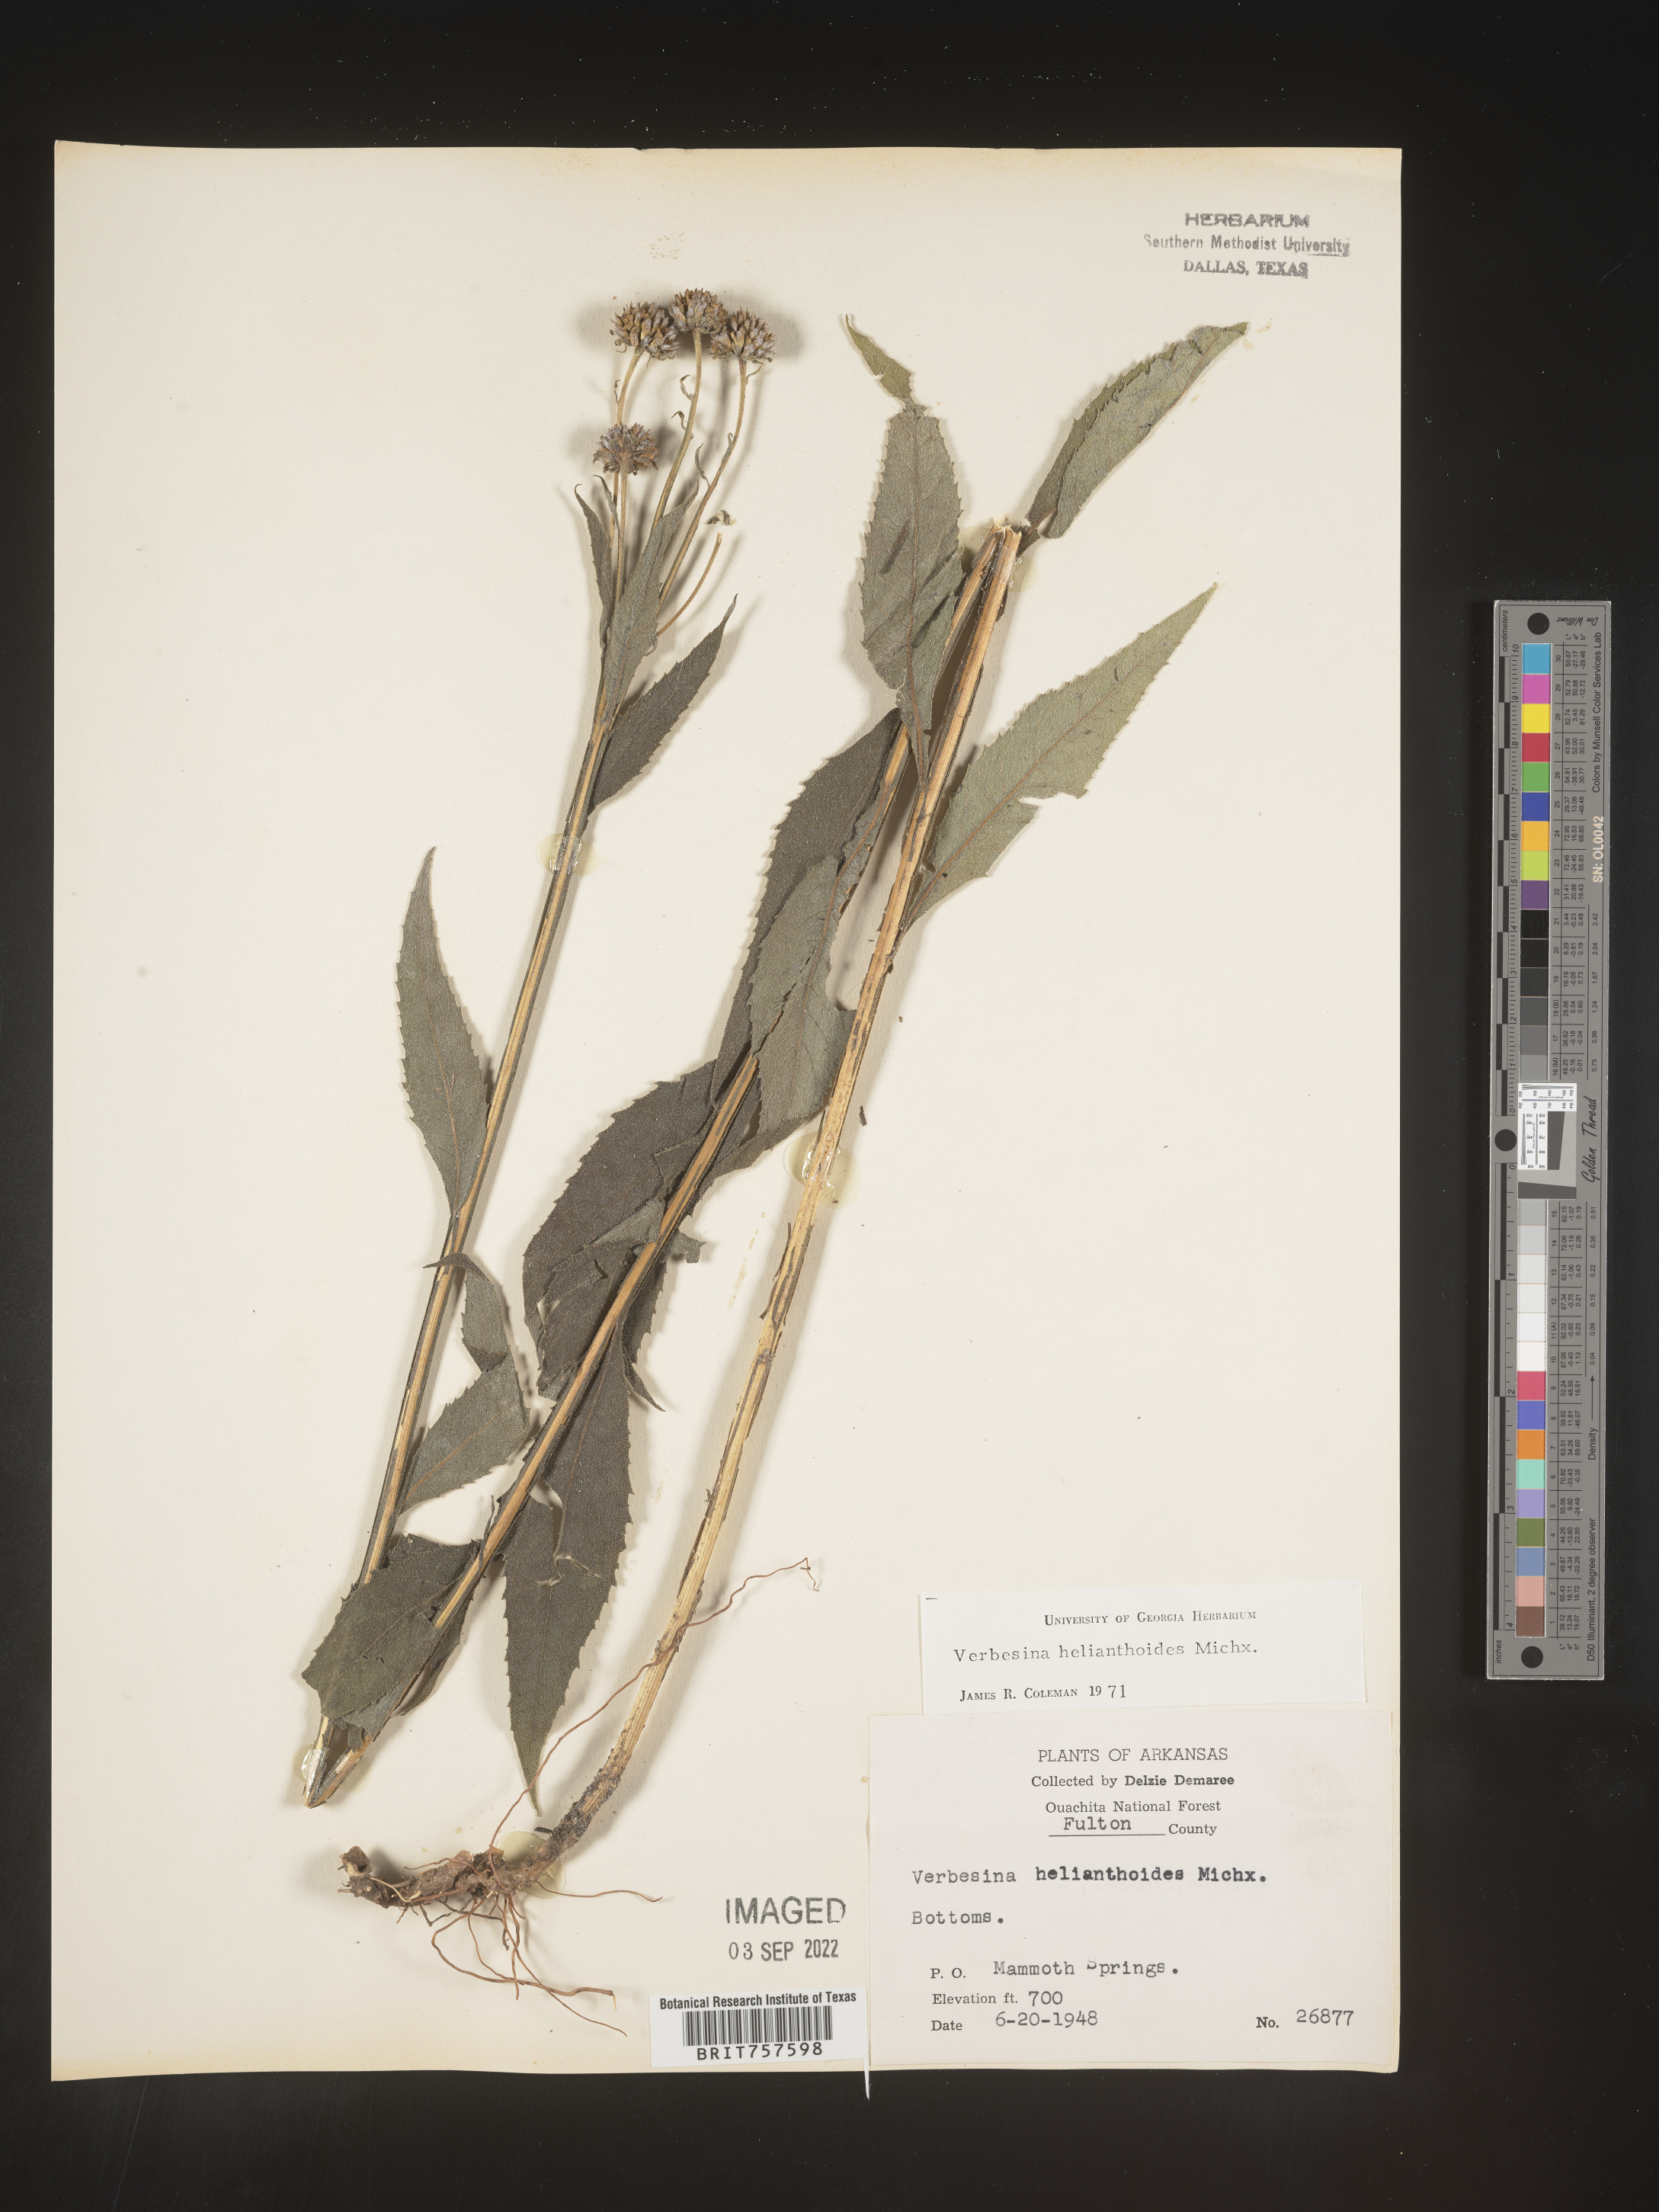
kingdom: Plantae
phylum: Tracheophyta
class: Magnoliopsida
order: Asterales
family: Asteraceae
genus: Verbesina
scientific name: Verbesina helianthoides
